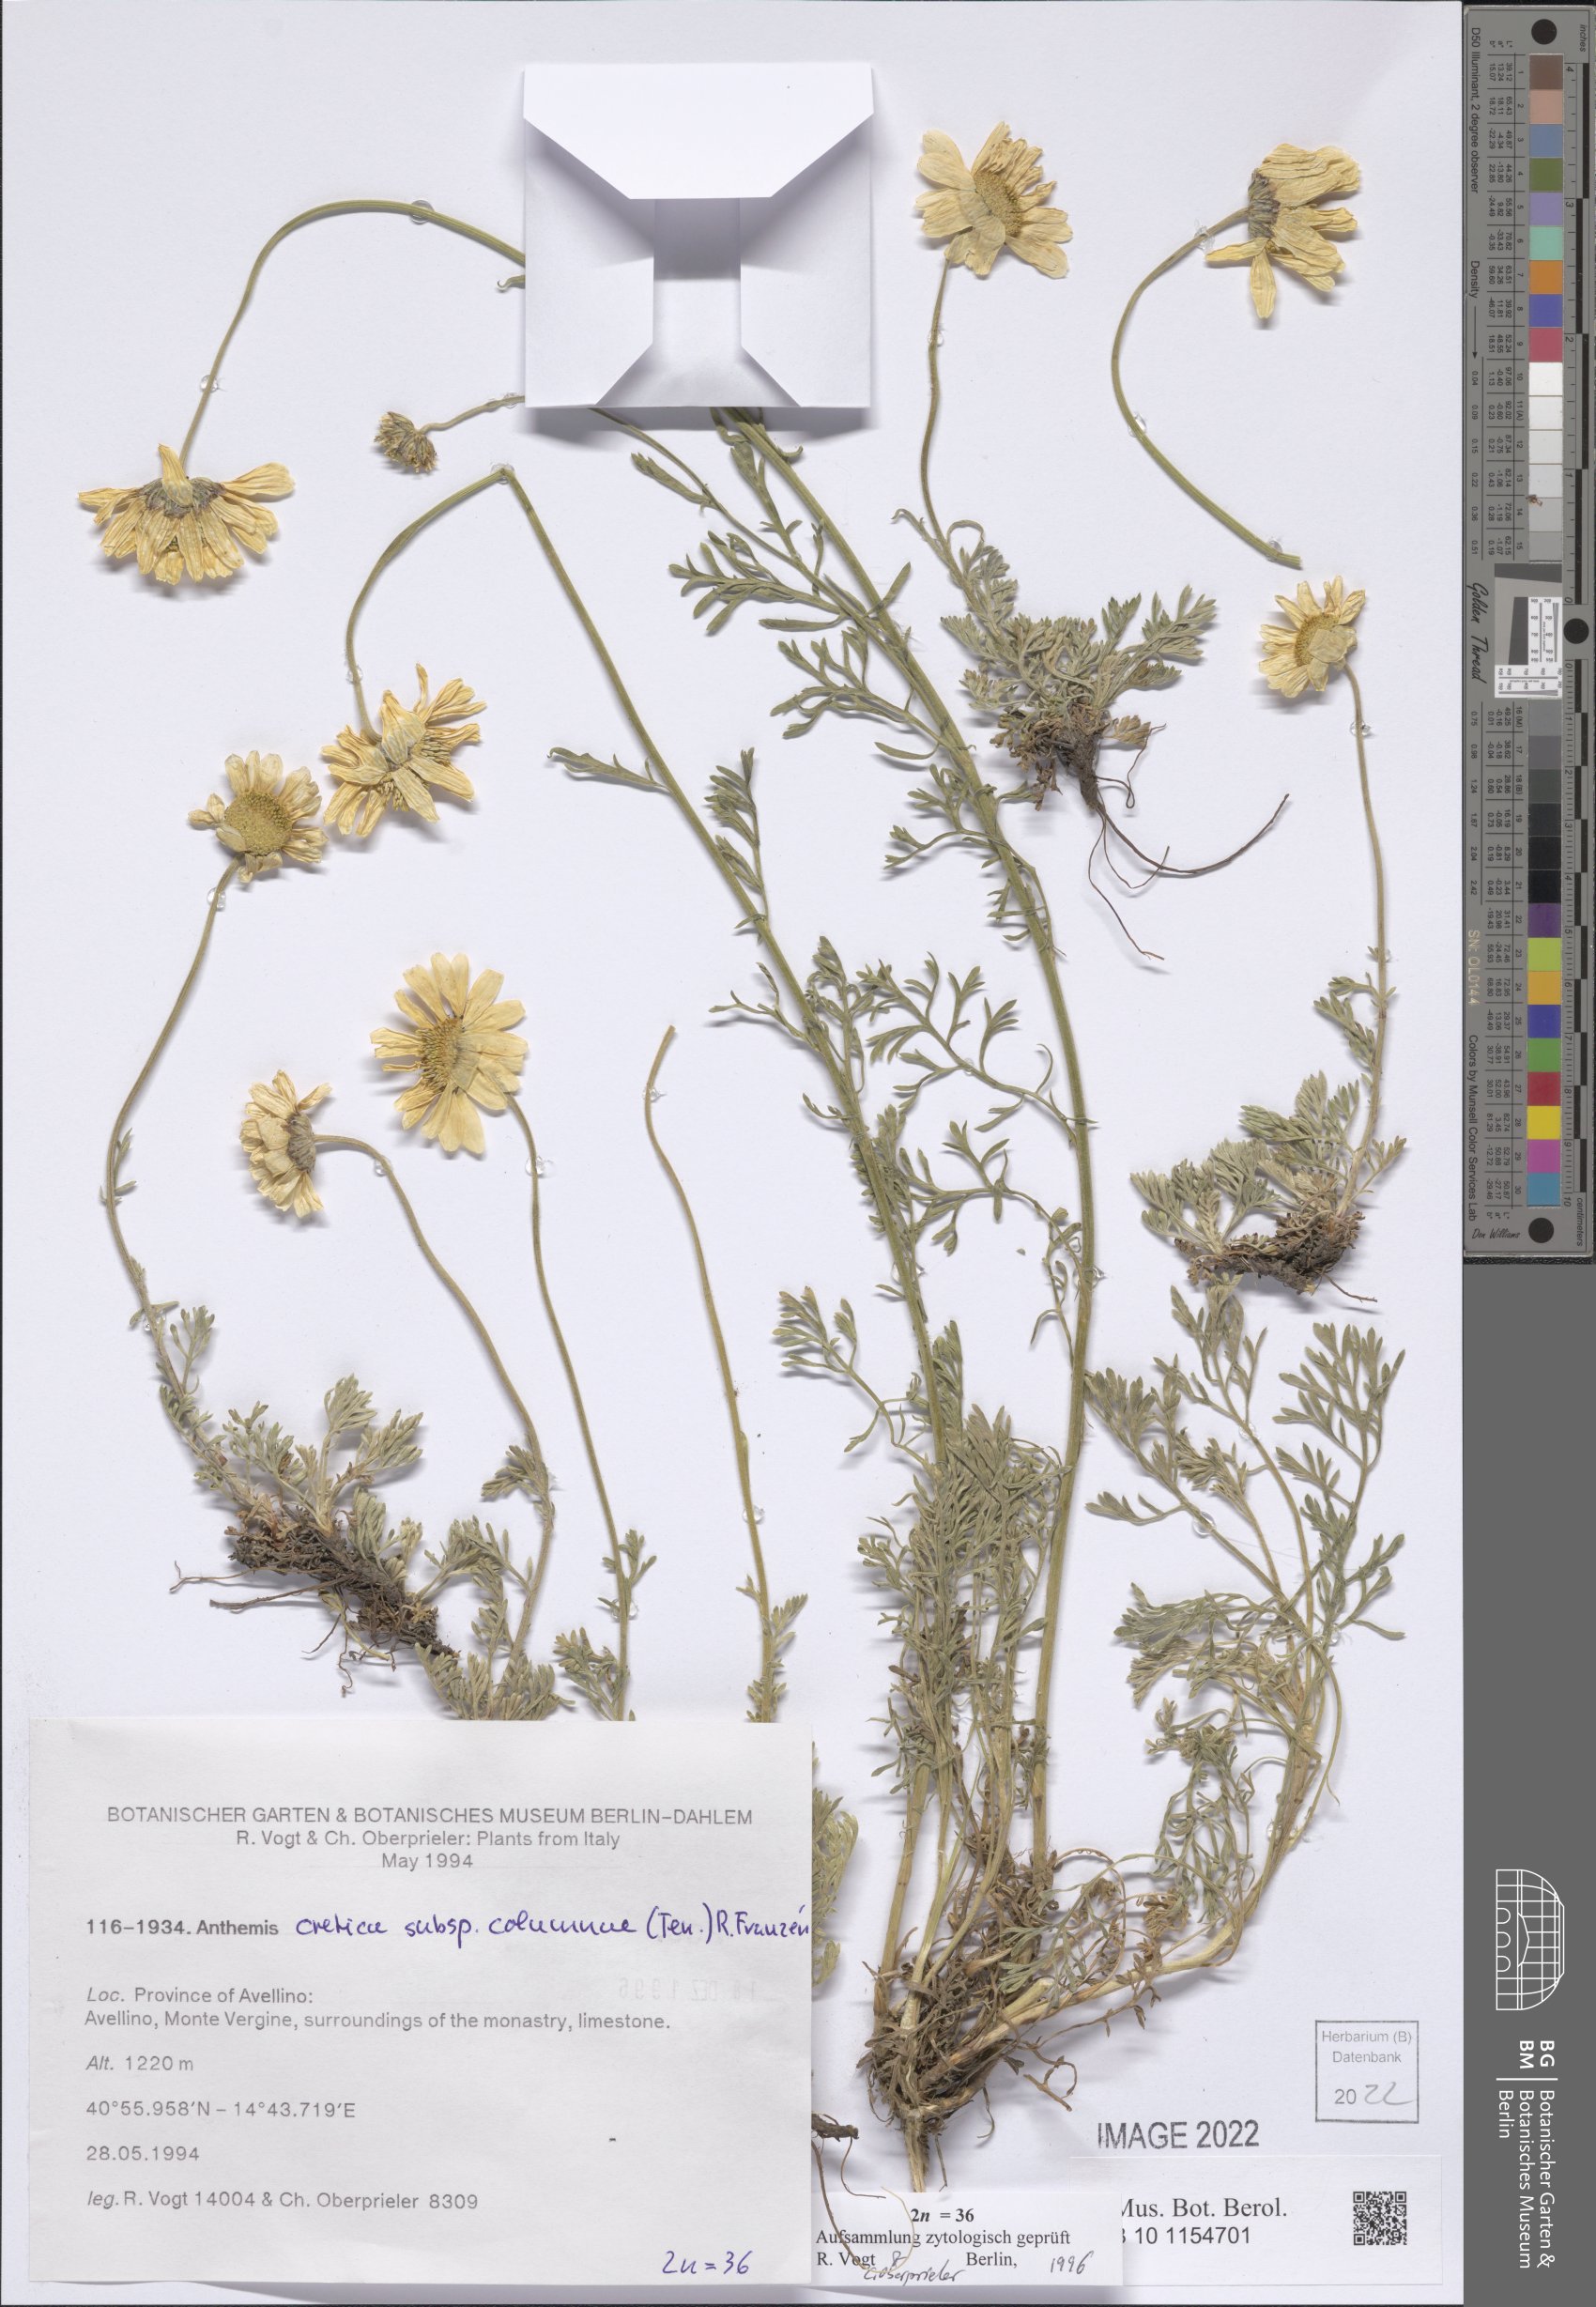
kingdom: Plantae
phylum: Tracheophyta
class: Magnoliopsida
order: Asterales
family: Asteraceae
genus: Anthemis
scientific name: Anthemis cretica
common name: Mountain dog-daisy
